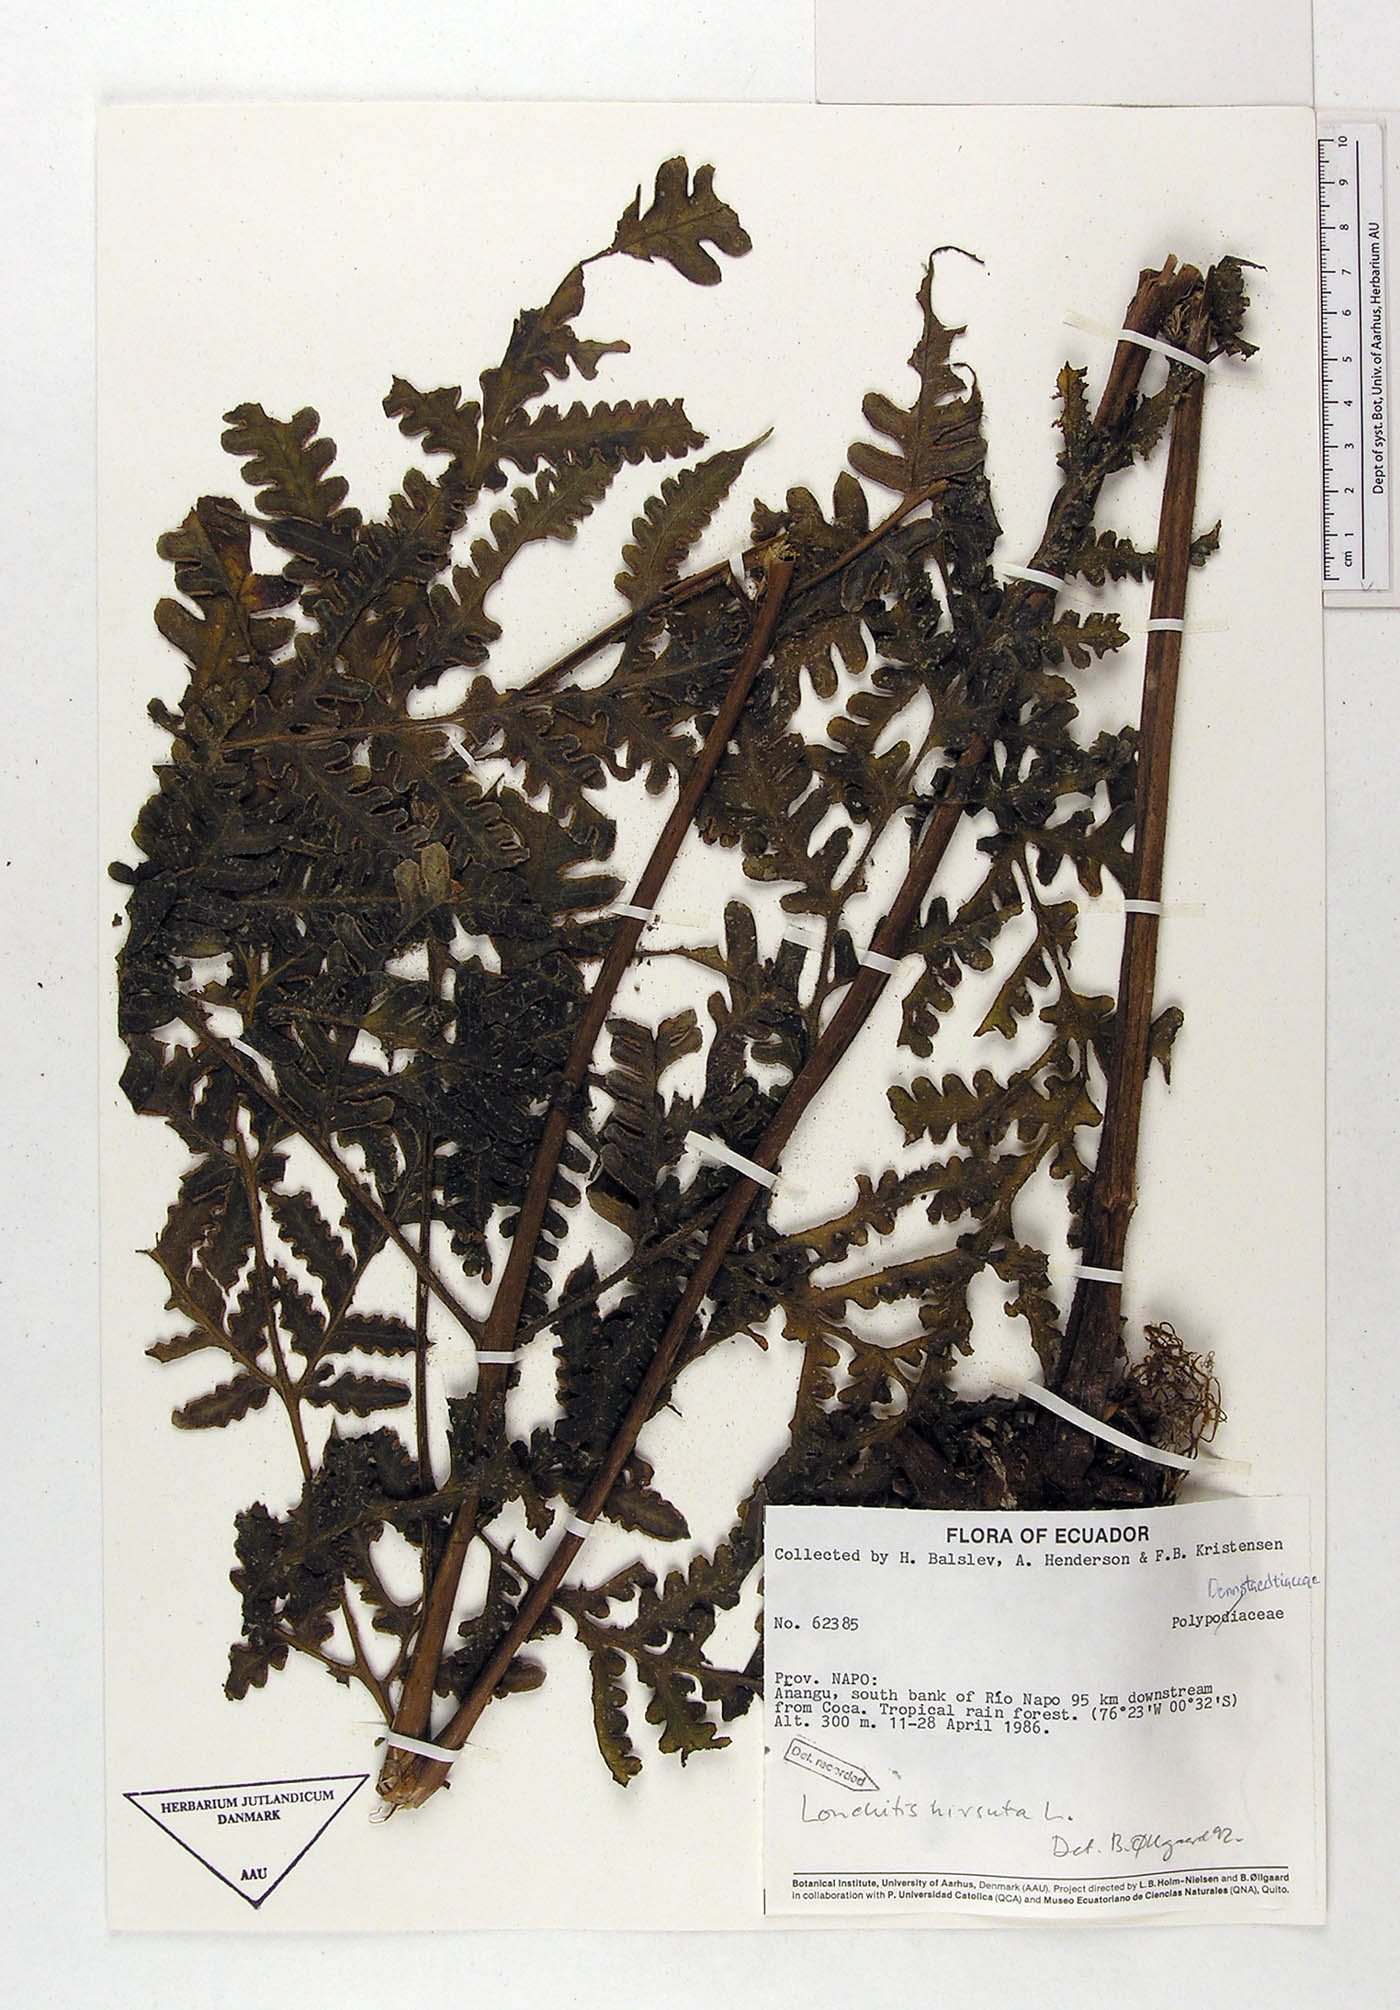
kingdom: Plantae
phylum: Tracheophyta
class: Polypodiopsida
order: Polypodiales
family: Lonchitidaceae
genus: Lonchitis
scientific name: Lonchitis hirsuta
